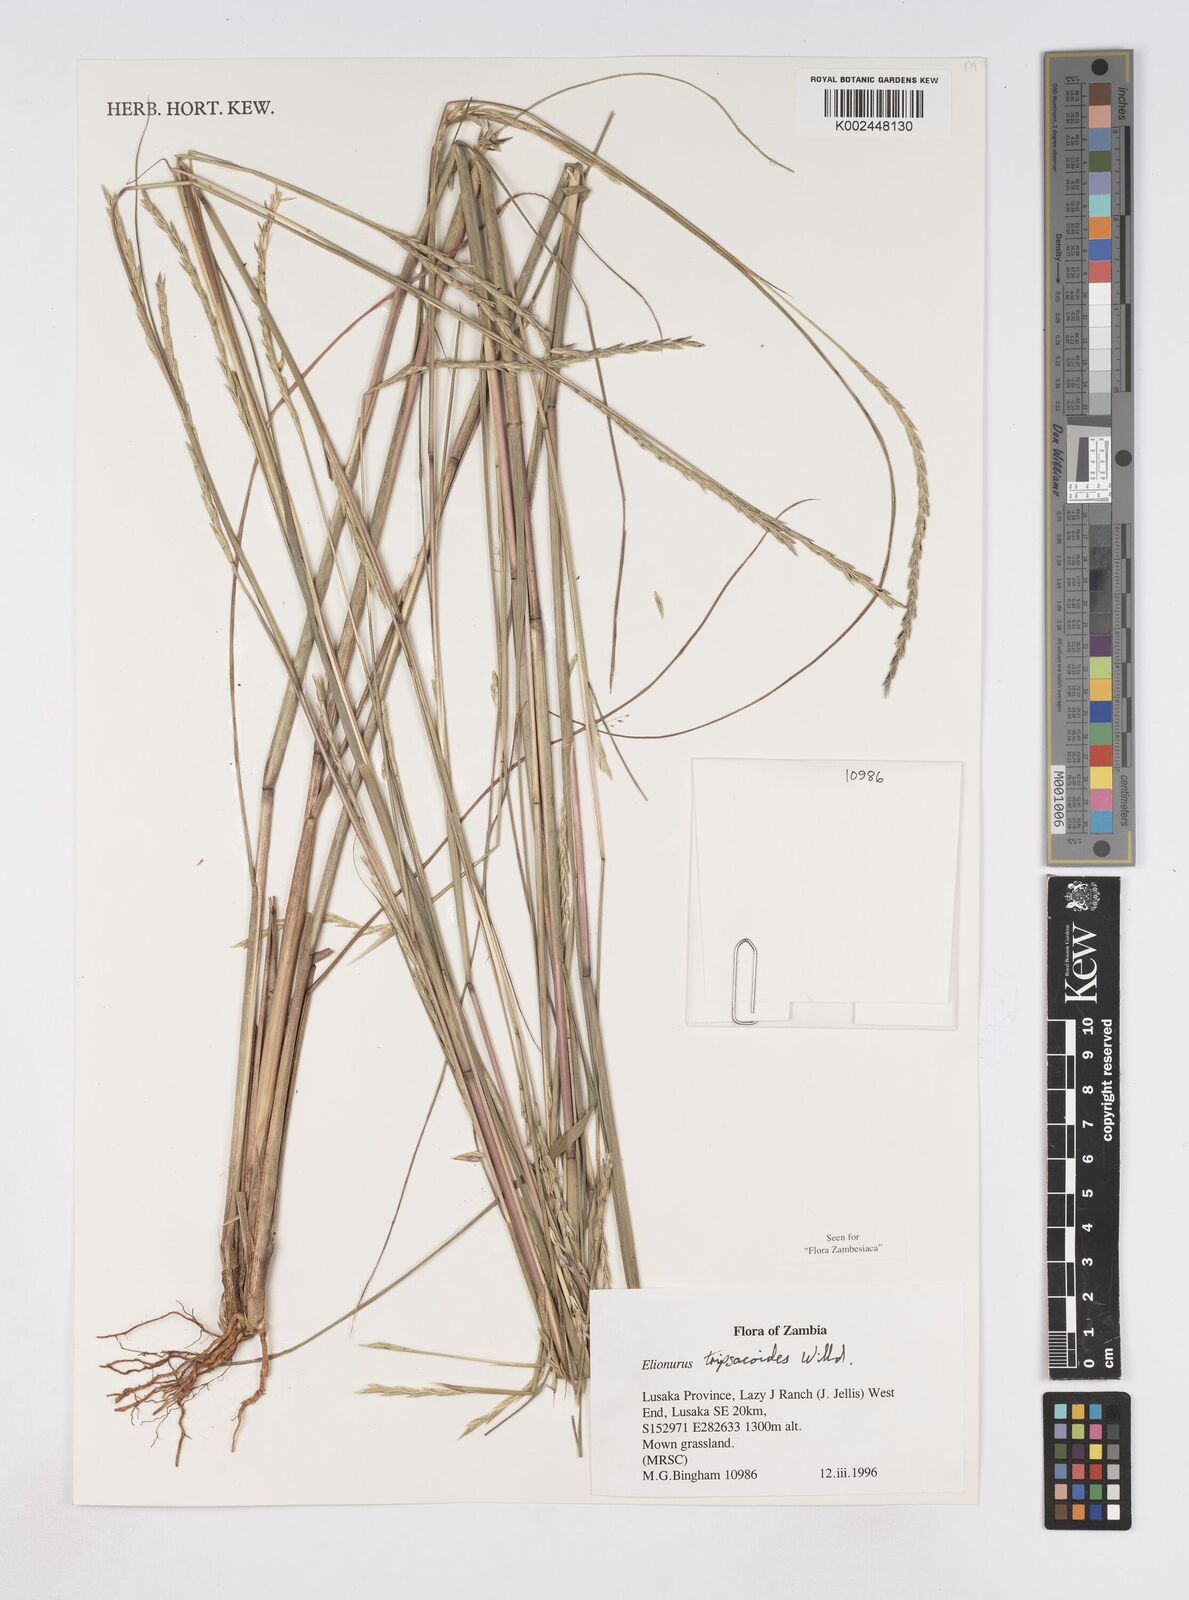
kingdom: Plantae
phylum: Tracheophyta
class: Liliopsida
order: Poales
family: Poaceae
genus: Elionurus
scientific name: Elionurus tripsacoides
